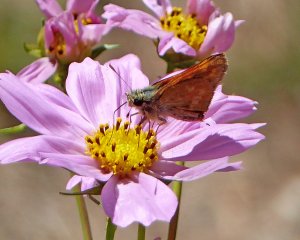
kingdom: Animalia
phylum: Arthropoda
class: Insecta
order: Lepidoptera
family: Hesperiidae
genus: Ochlodes
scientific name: Ochlodes sylvanoides
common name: Woodland Skipper
